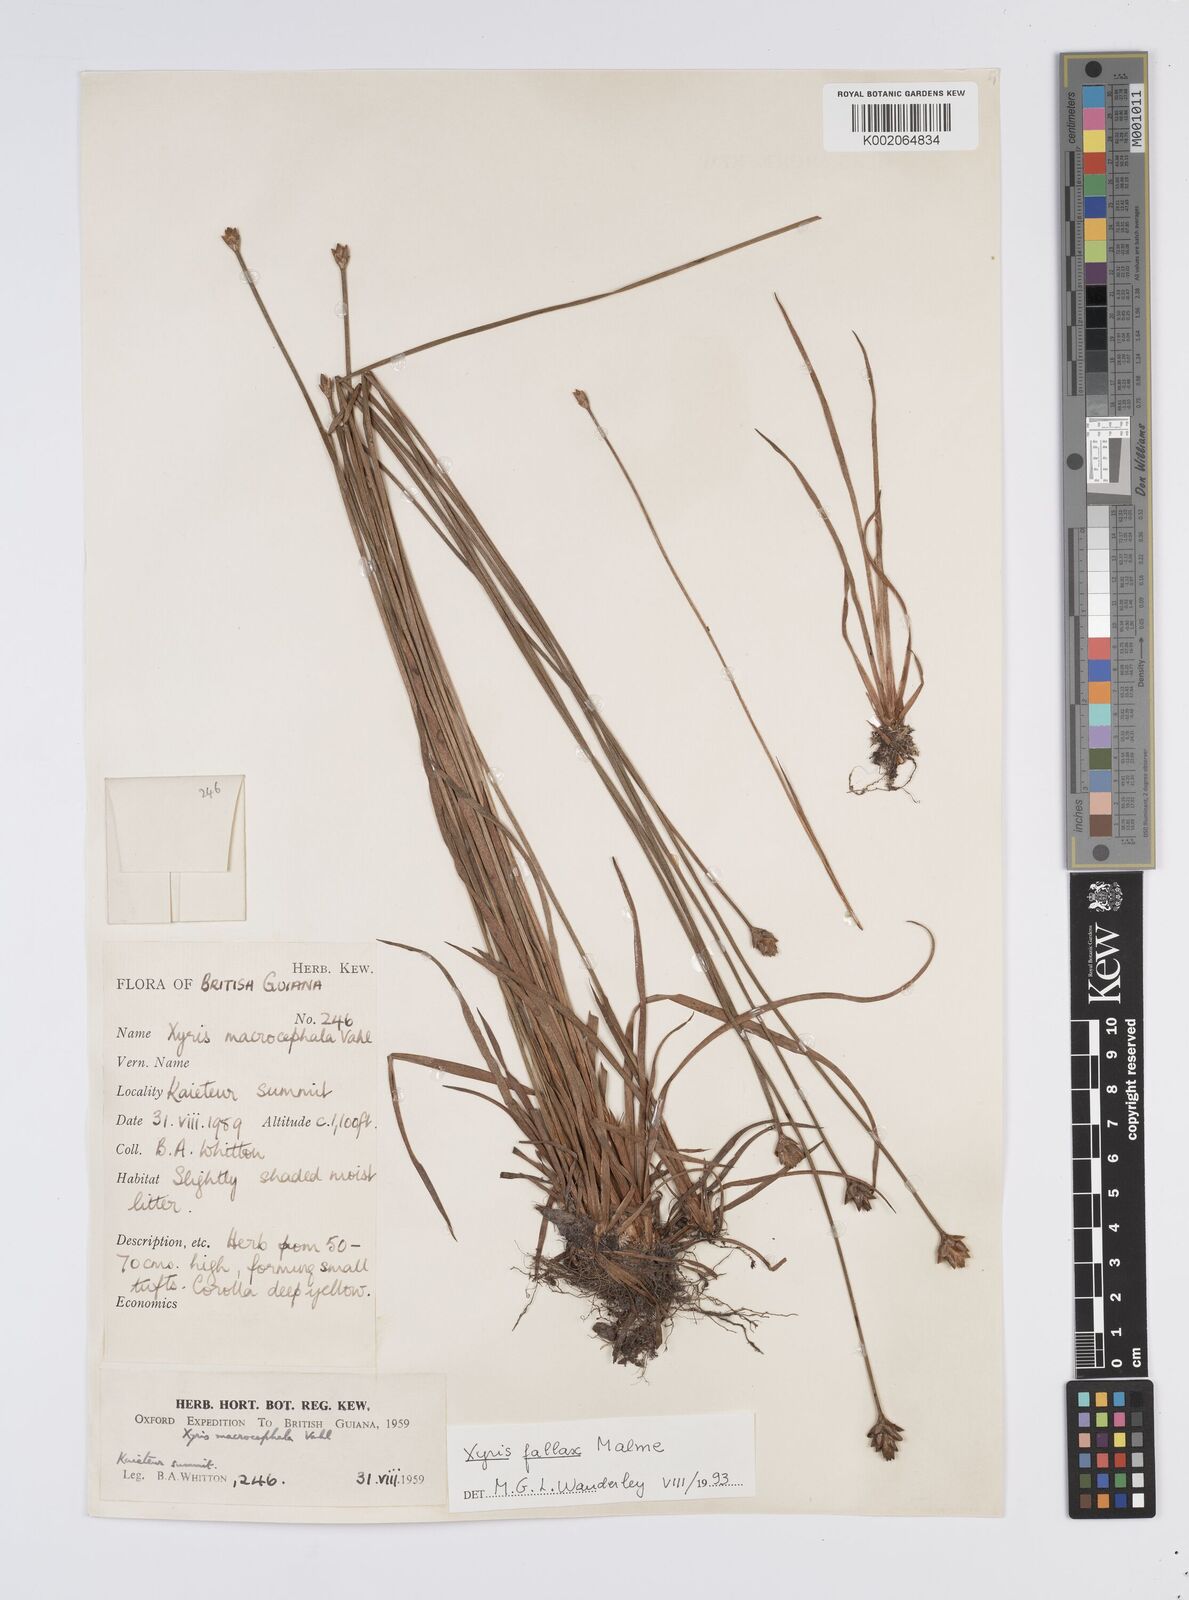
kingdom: Plantae
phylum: Tracheophyta
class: Liliopsida
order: Poales
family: Xyridaceae
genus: Xyris
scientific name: Xyris fallax
